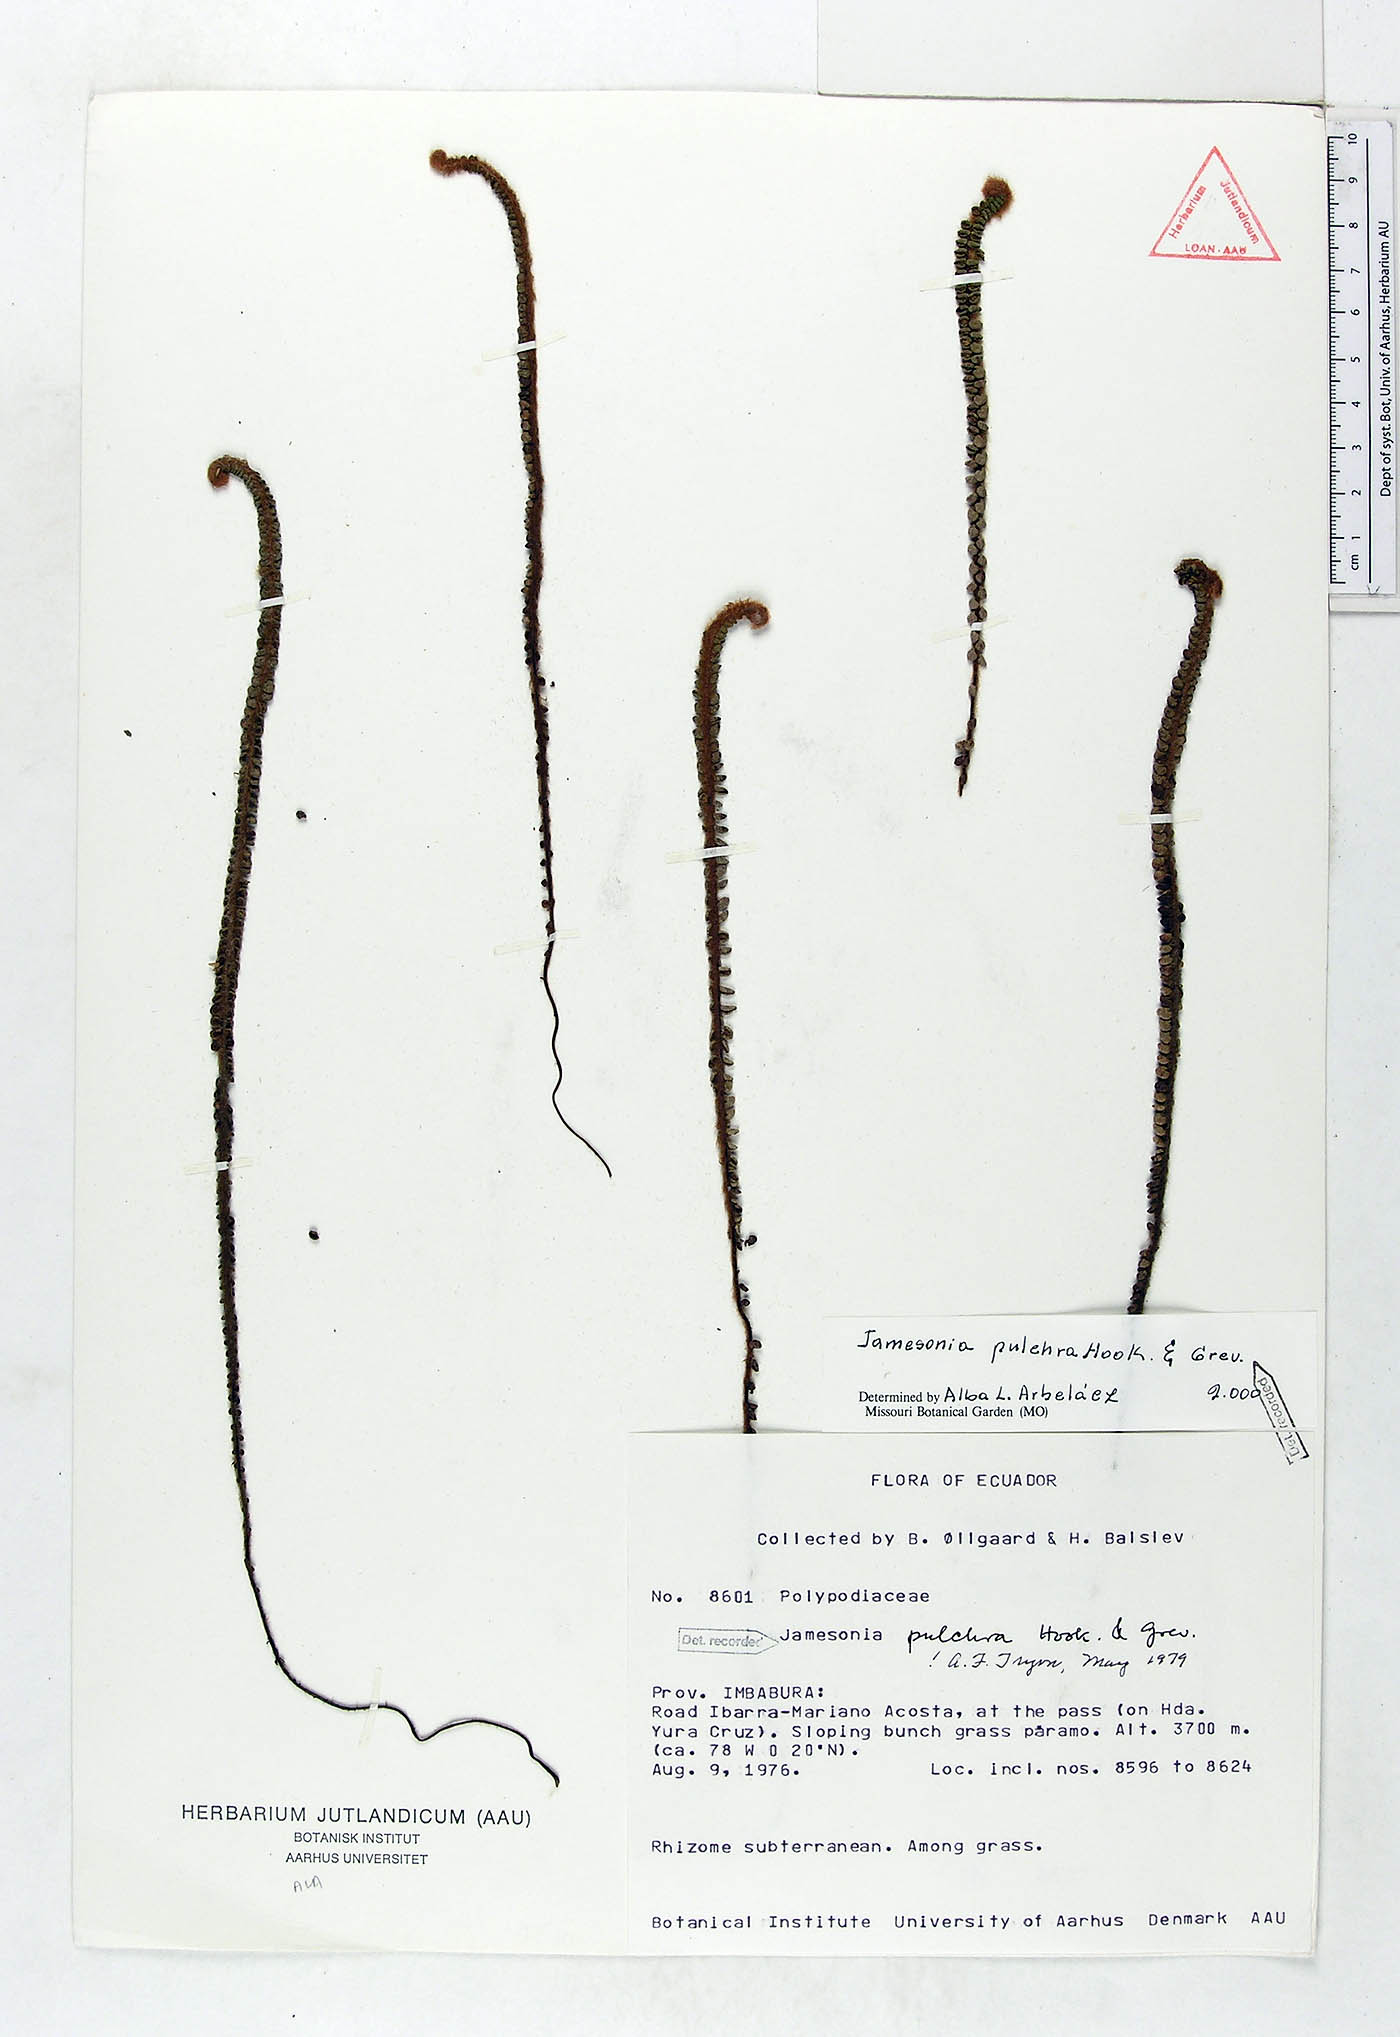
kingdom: Plantae
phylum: Tracheophyta
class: Polypodiopsida
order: Polypodiales
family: Pteridaceae
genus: Jamesonia
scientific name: Jamesonia pulchra
